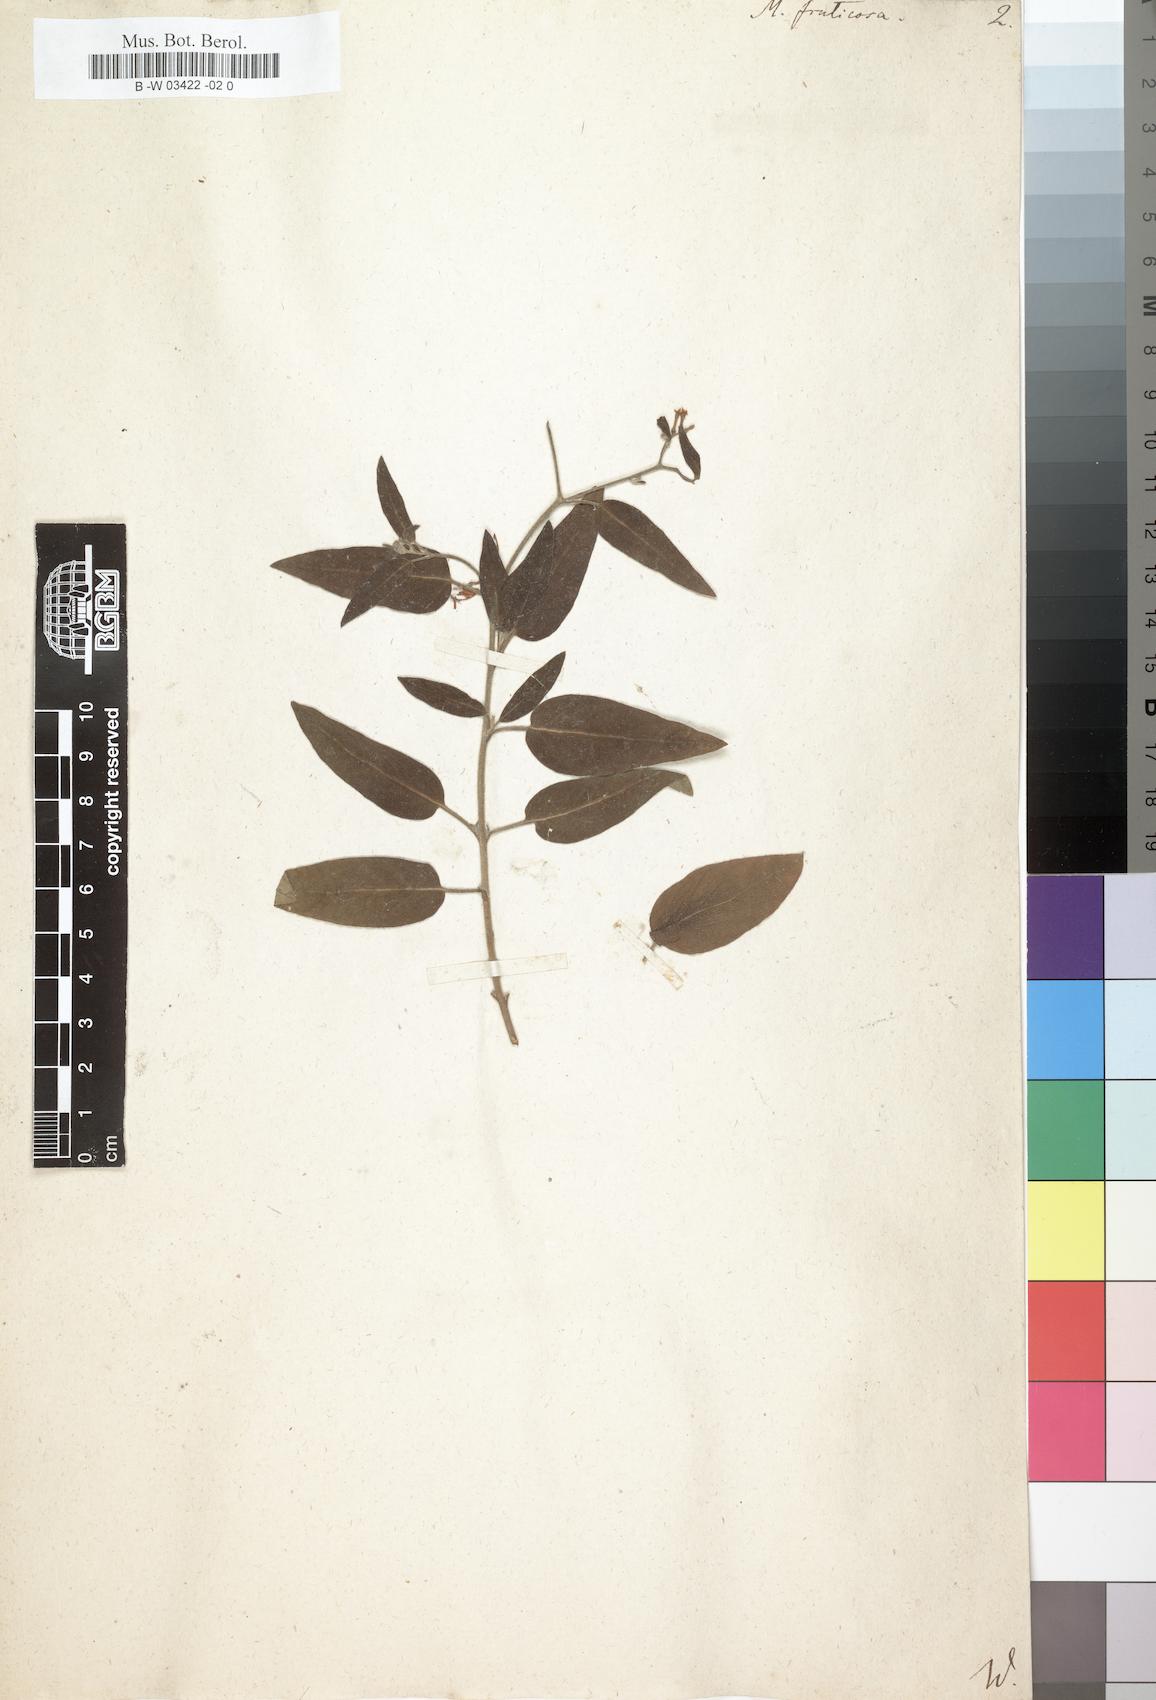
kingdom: Plantae
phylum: Tracheophyta
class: Magnoliopsida
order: Boraginales
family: Heliotropiaceae
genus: Heliotropium
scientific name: Heliotropium messerschmidioides
